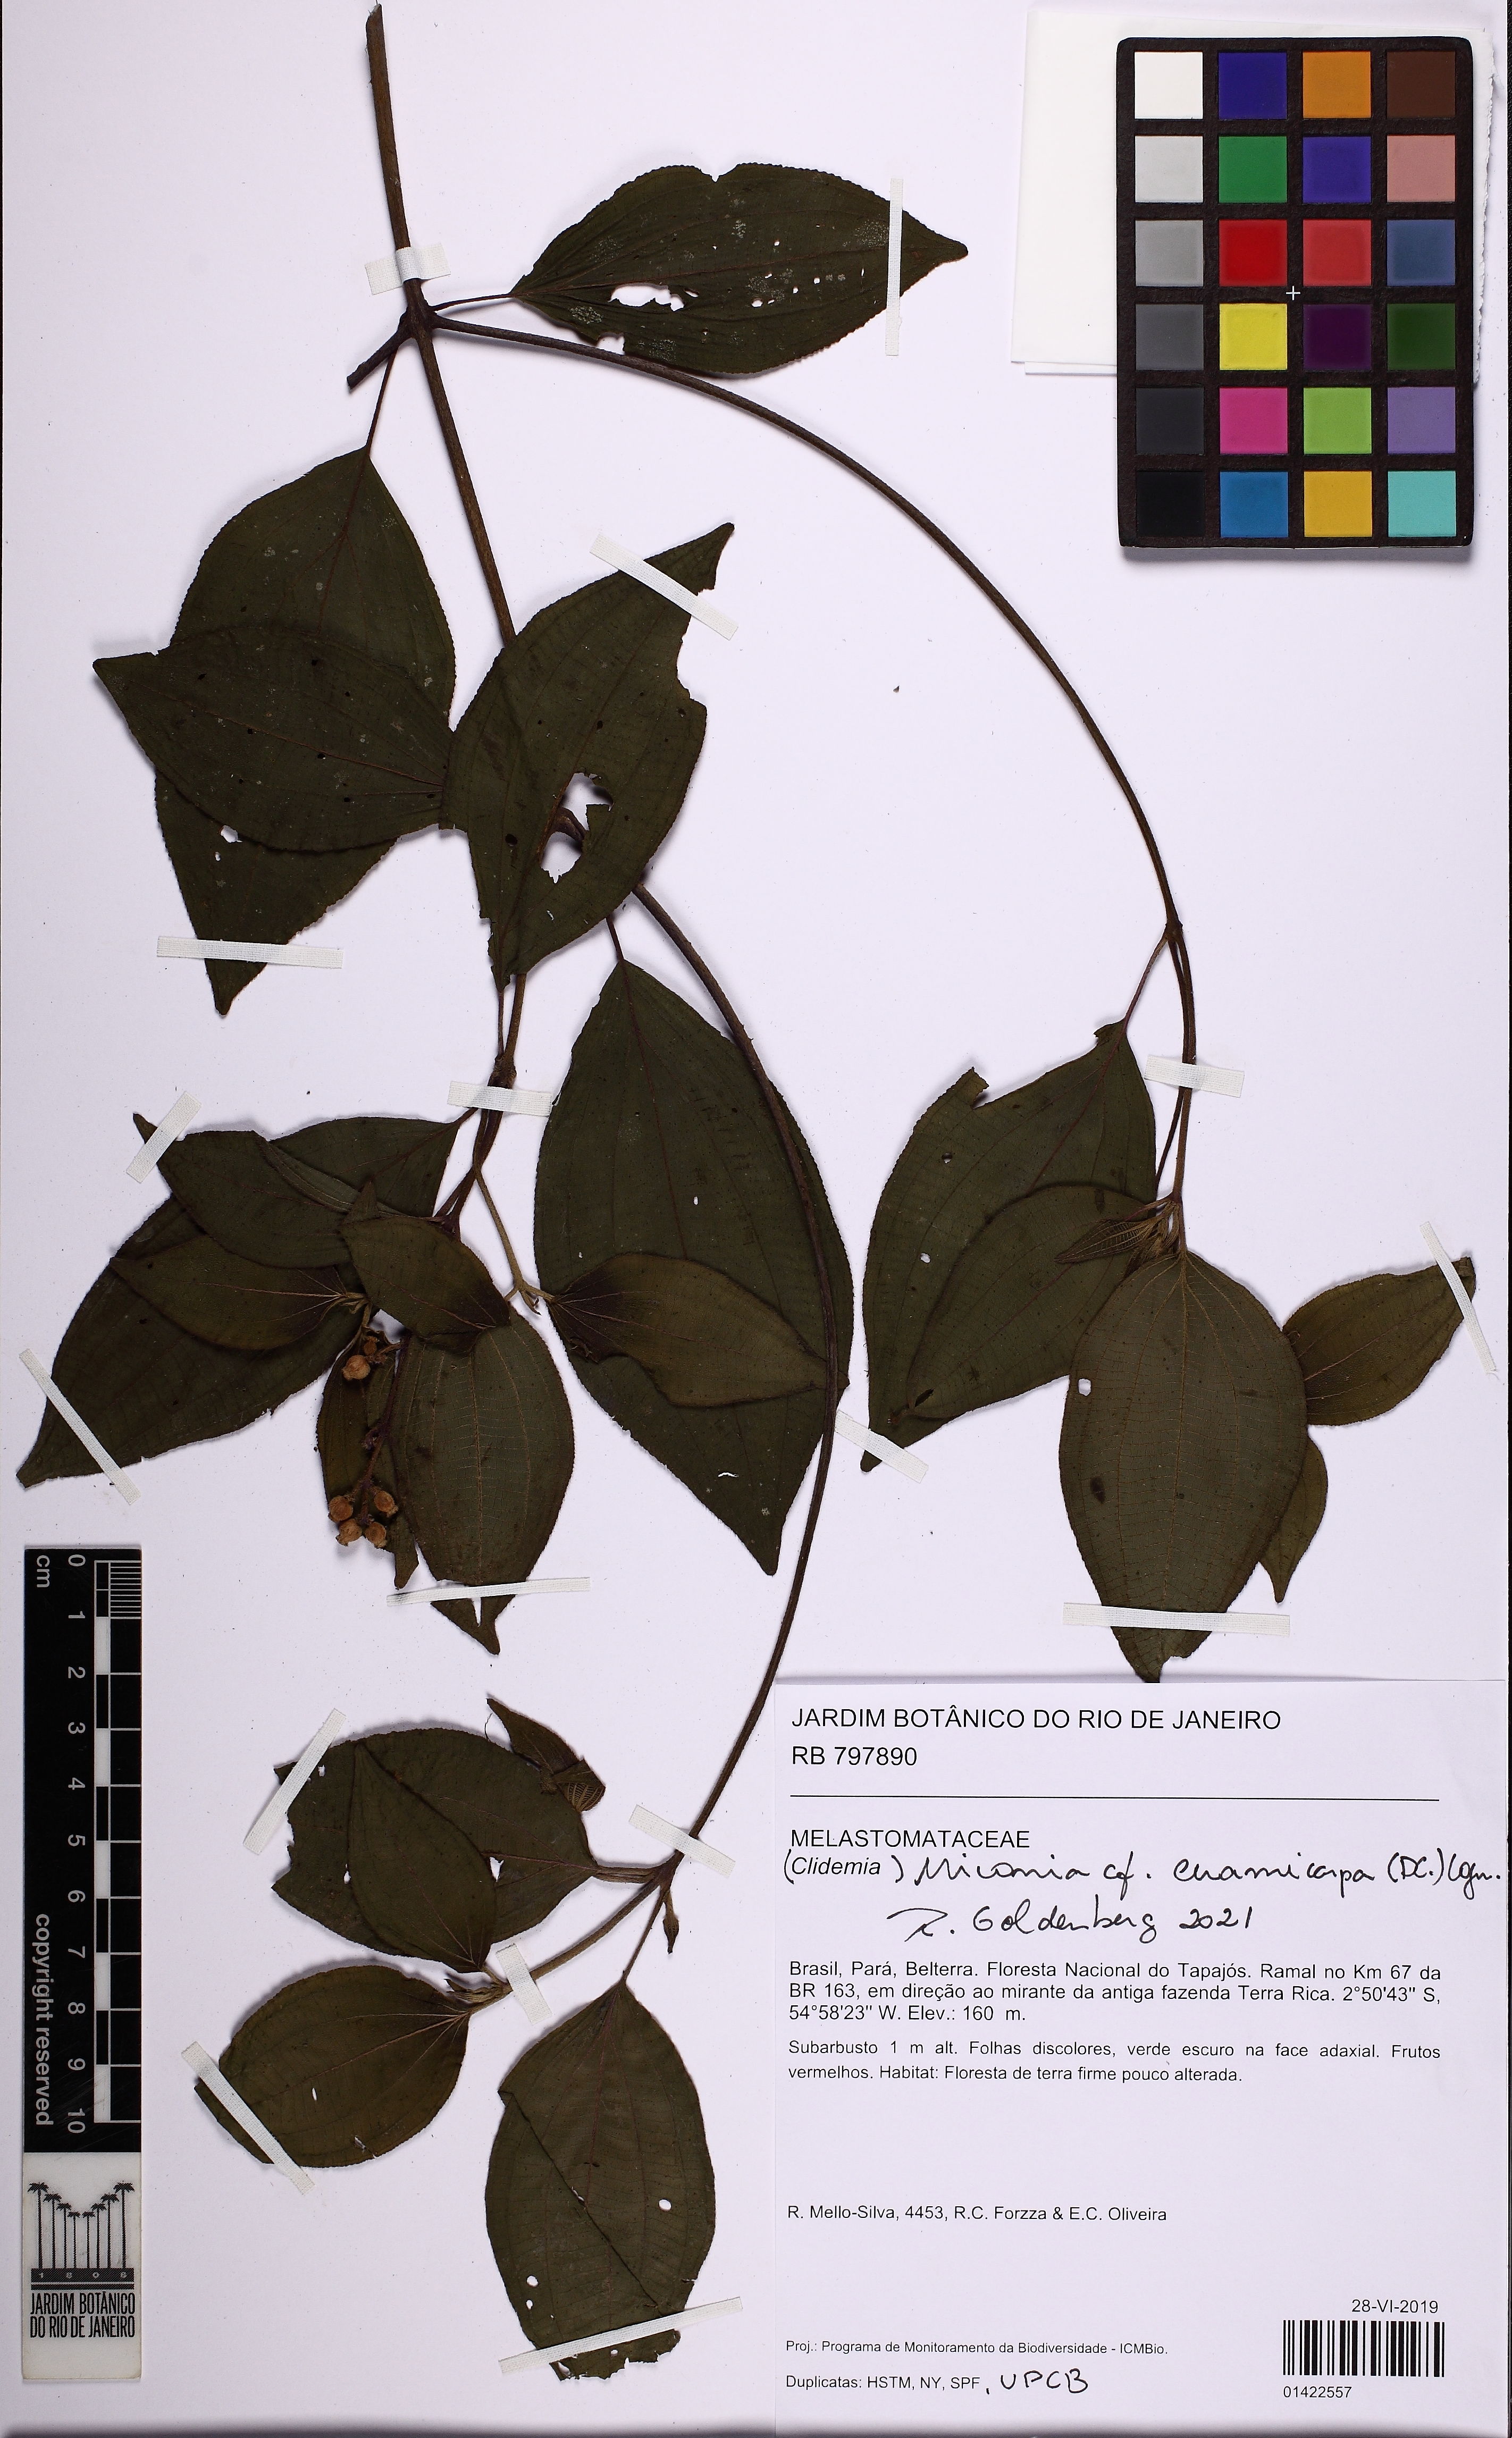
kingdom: Plantae
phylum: Tracheophyta
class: Magnoliopsida
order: Myrtales
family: Melastomataceae
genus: Miconia
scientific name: Miconia ceramicarpa
